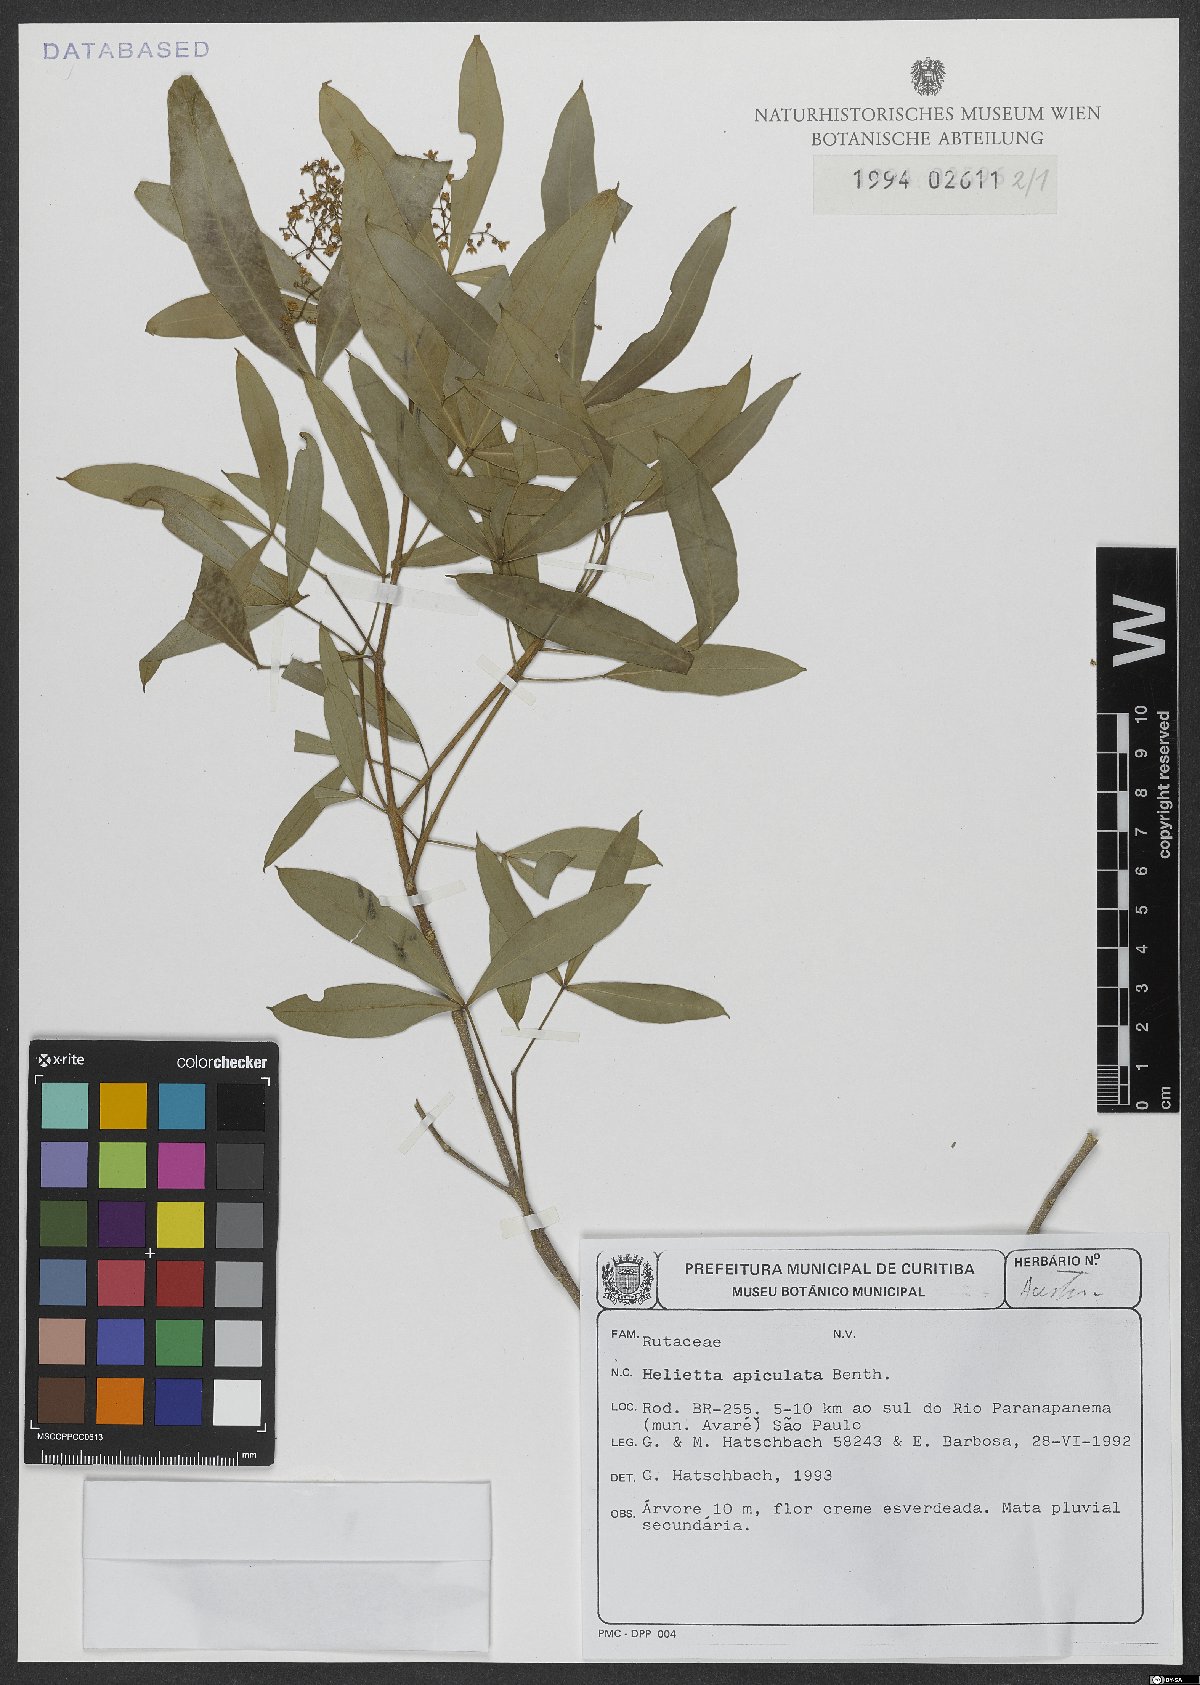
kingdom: Plantae
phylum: Tracheophyta
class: Magnoliopsida
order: Sapindales
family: Rutaceae
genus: Helietta
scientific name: Helietta apiculata
